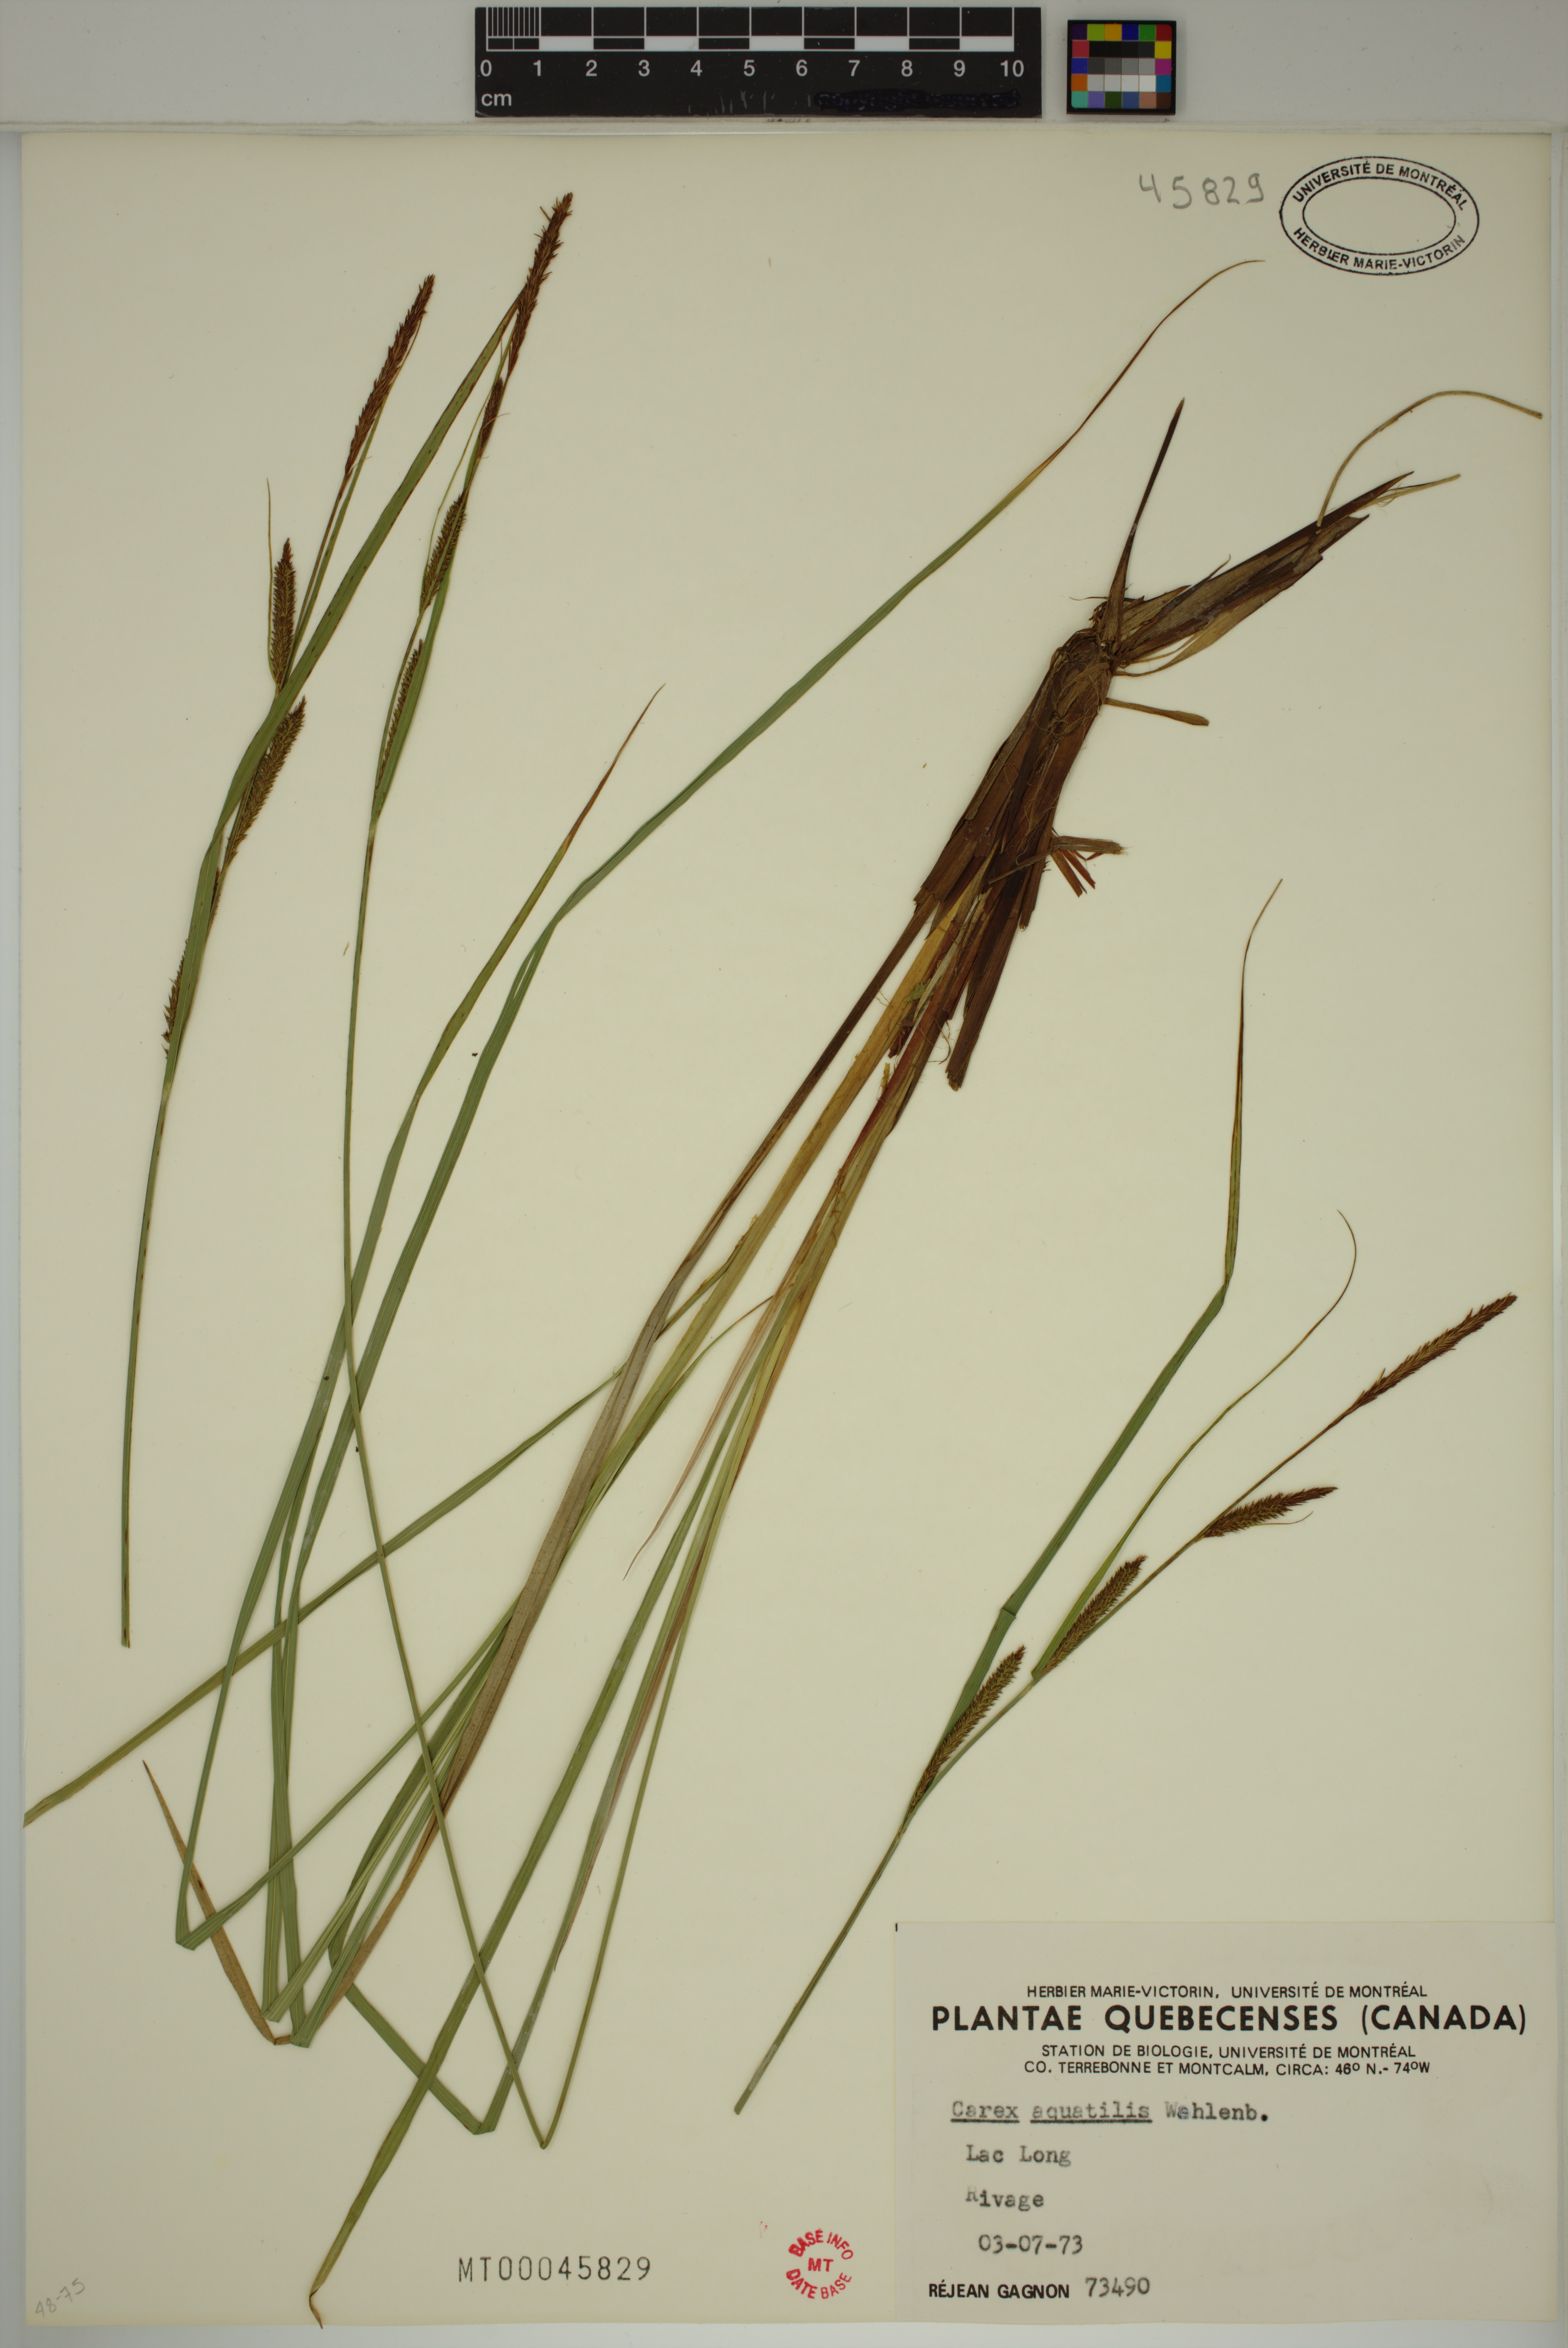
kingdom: Plantae
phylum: Tracheophyta
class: Liliopsida
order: Poales
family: Cyperaceae
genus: Carex
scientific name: Carex aquatilis
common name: Water sedge
